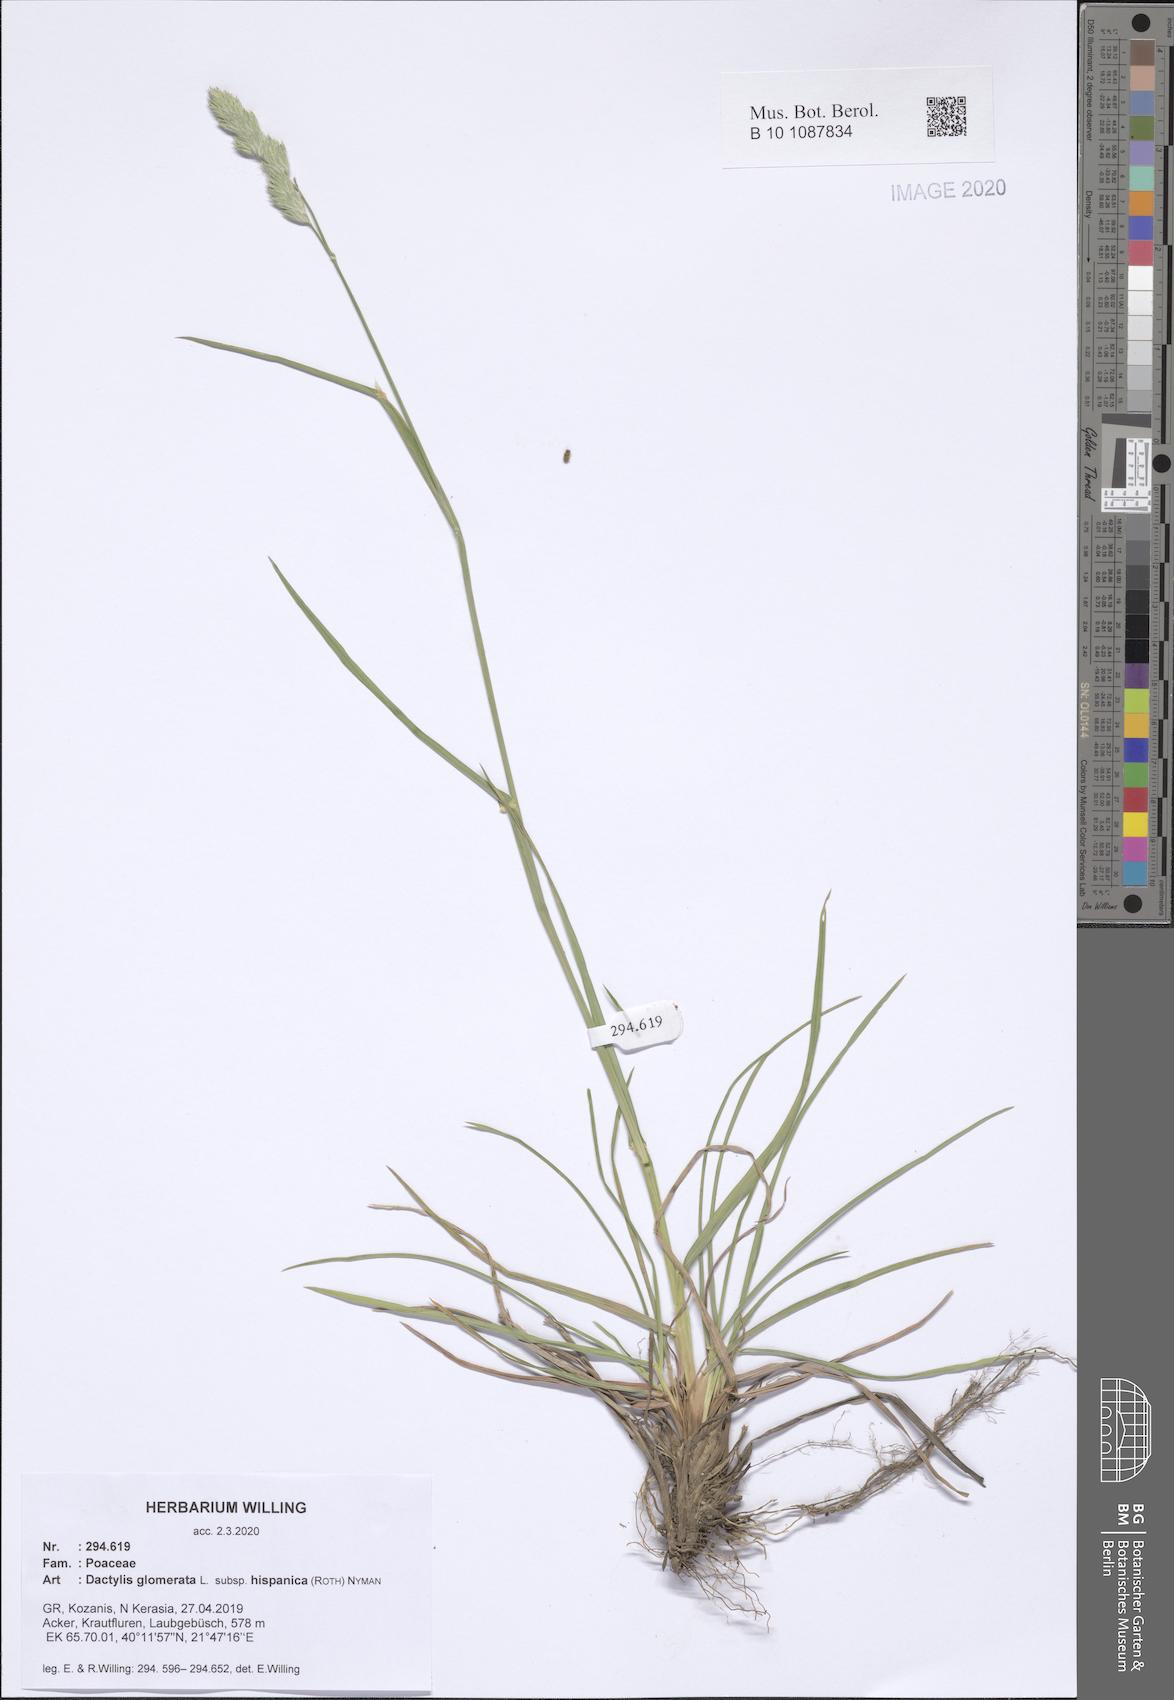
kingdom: Plantae
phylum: Tracheophyta
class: Liliopsida
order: Poales
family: Poaceae
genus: Dactylis
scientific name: Dactylis glomerata
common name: Orchardgrass
